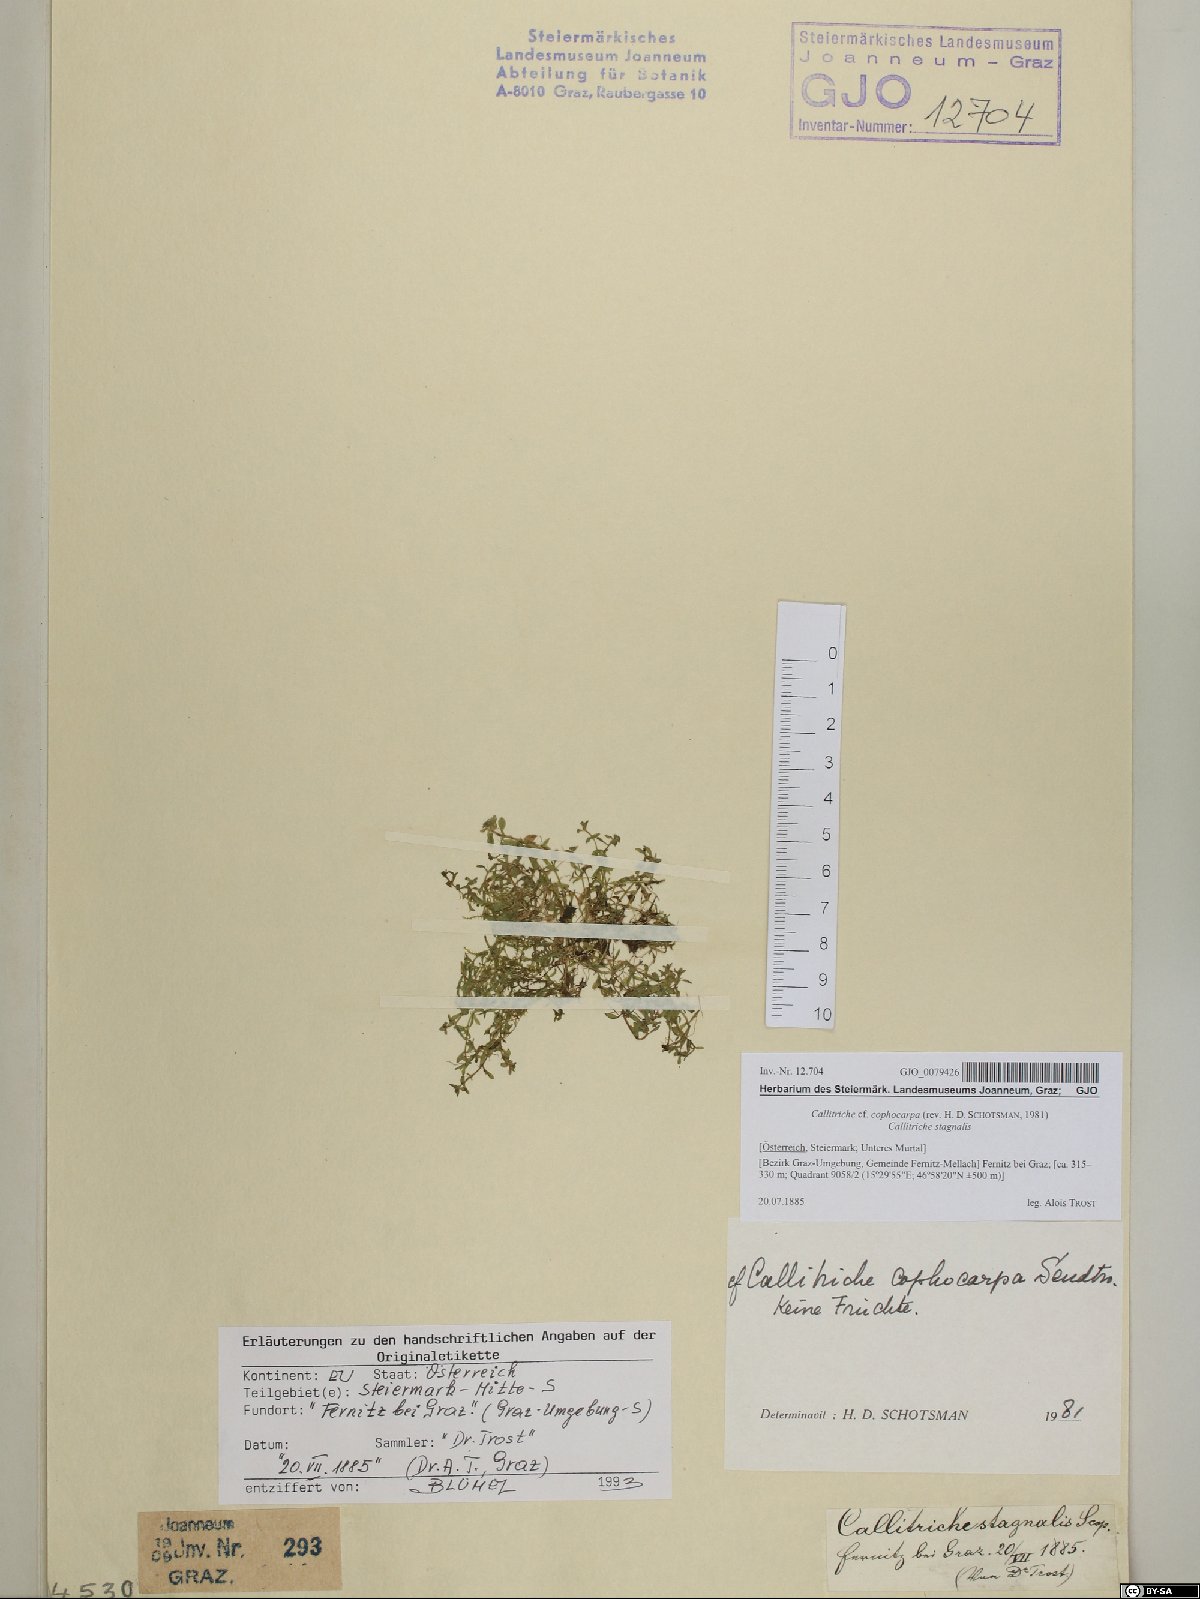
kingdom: Plantae
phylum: Tracheophyta
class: Magnoliopsida
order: Lamiales
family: Plantaginaceae
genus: Callitriche
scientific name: Callitriche cophocarpa
